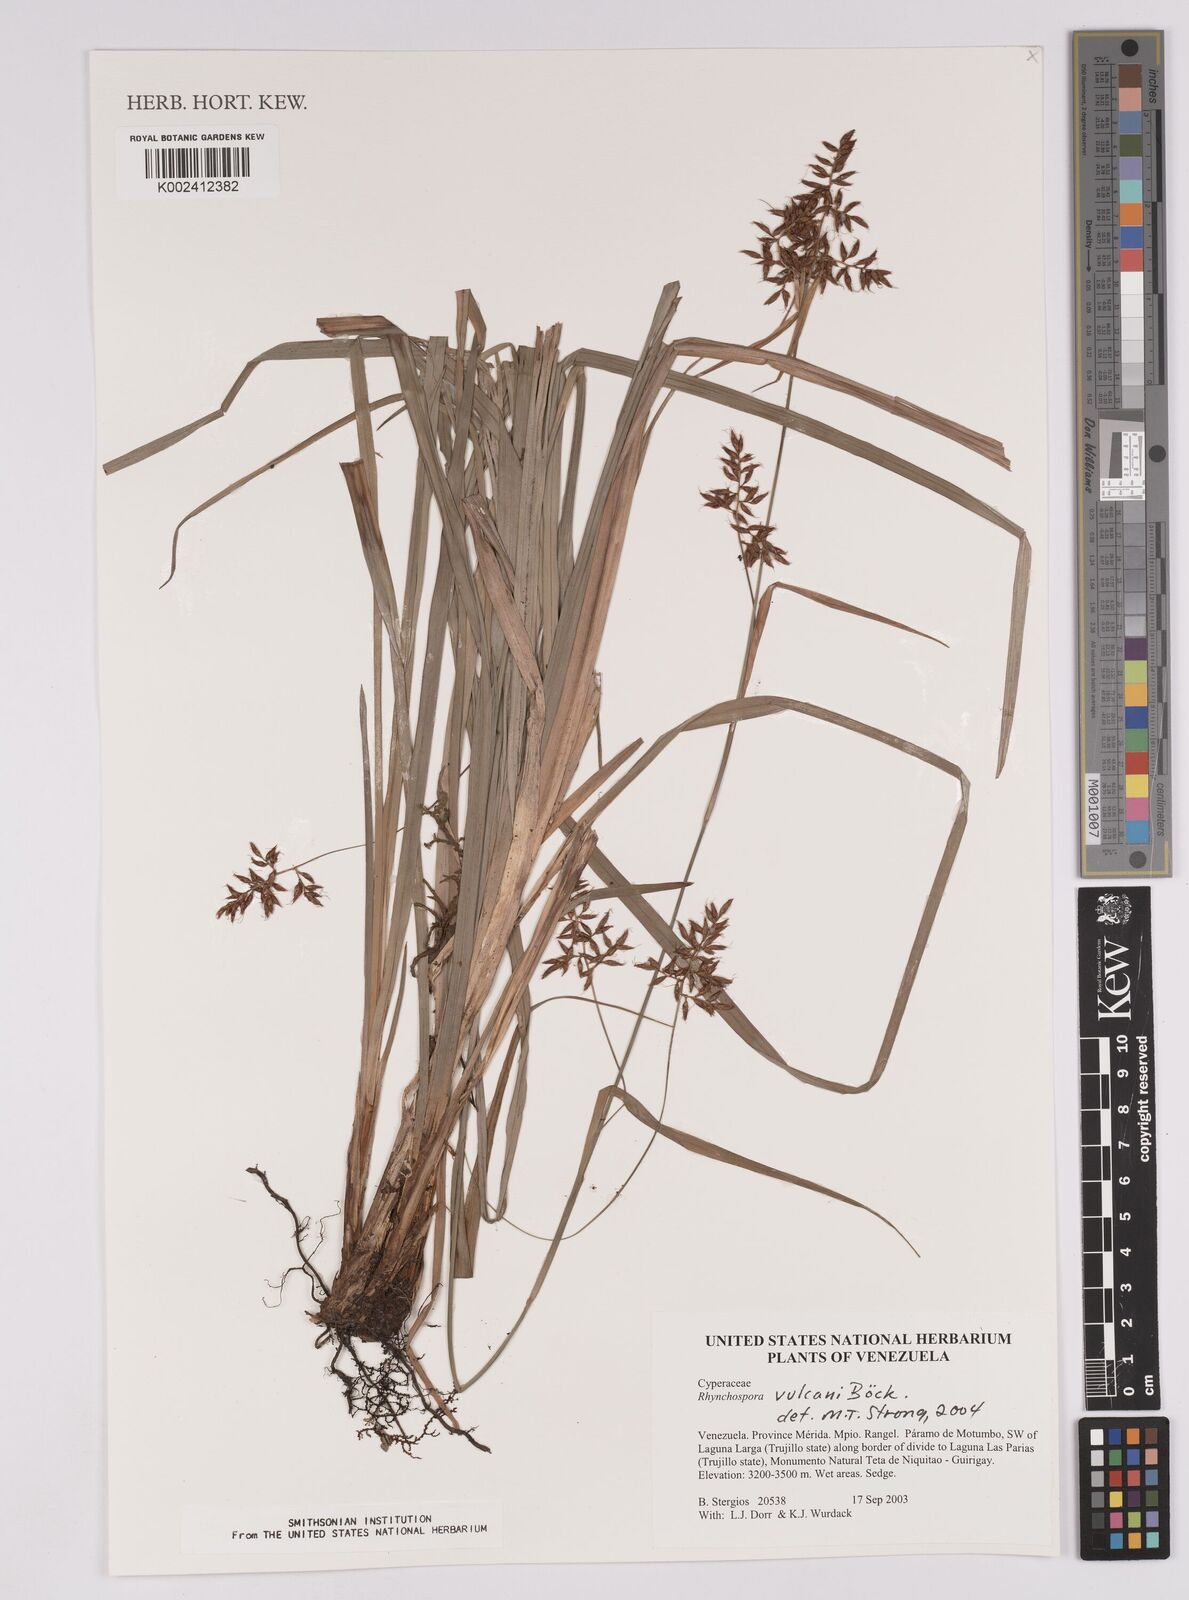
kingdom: Plantae
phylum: Tracheophyta
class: Liliopsida
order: Poales
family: Cyperaceae
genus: Rhynchospora
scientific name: Rhynchospora vulcani
